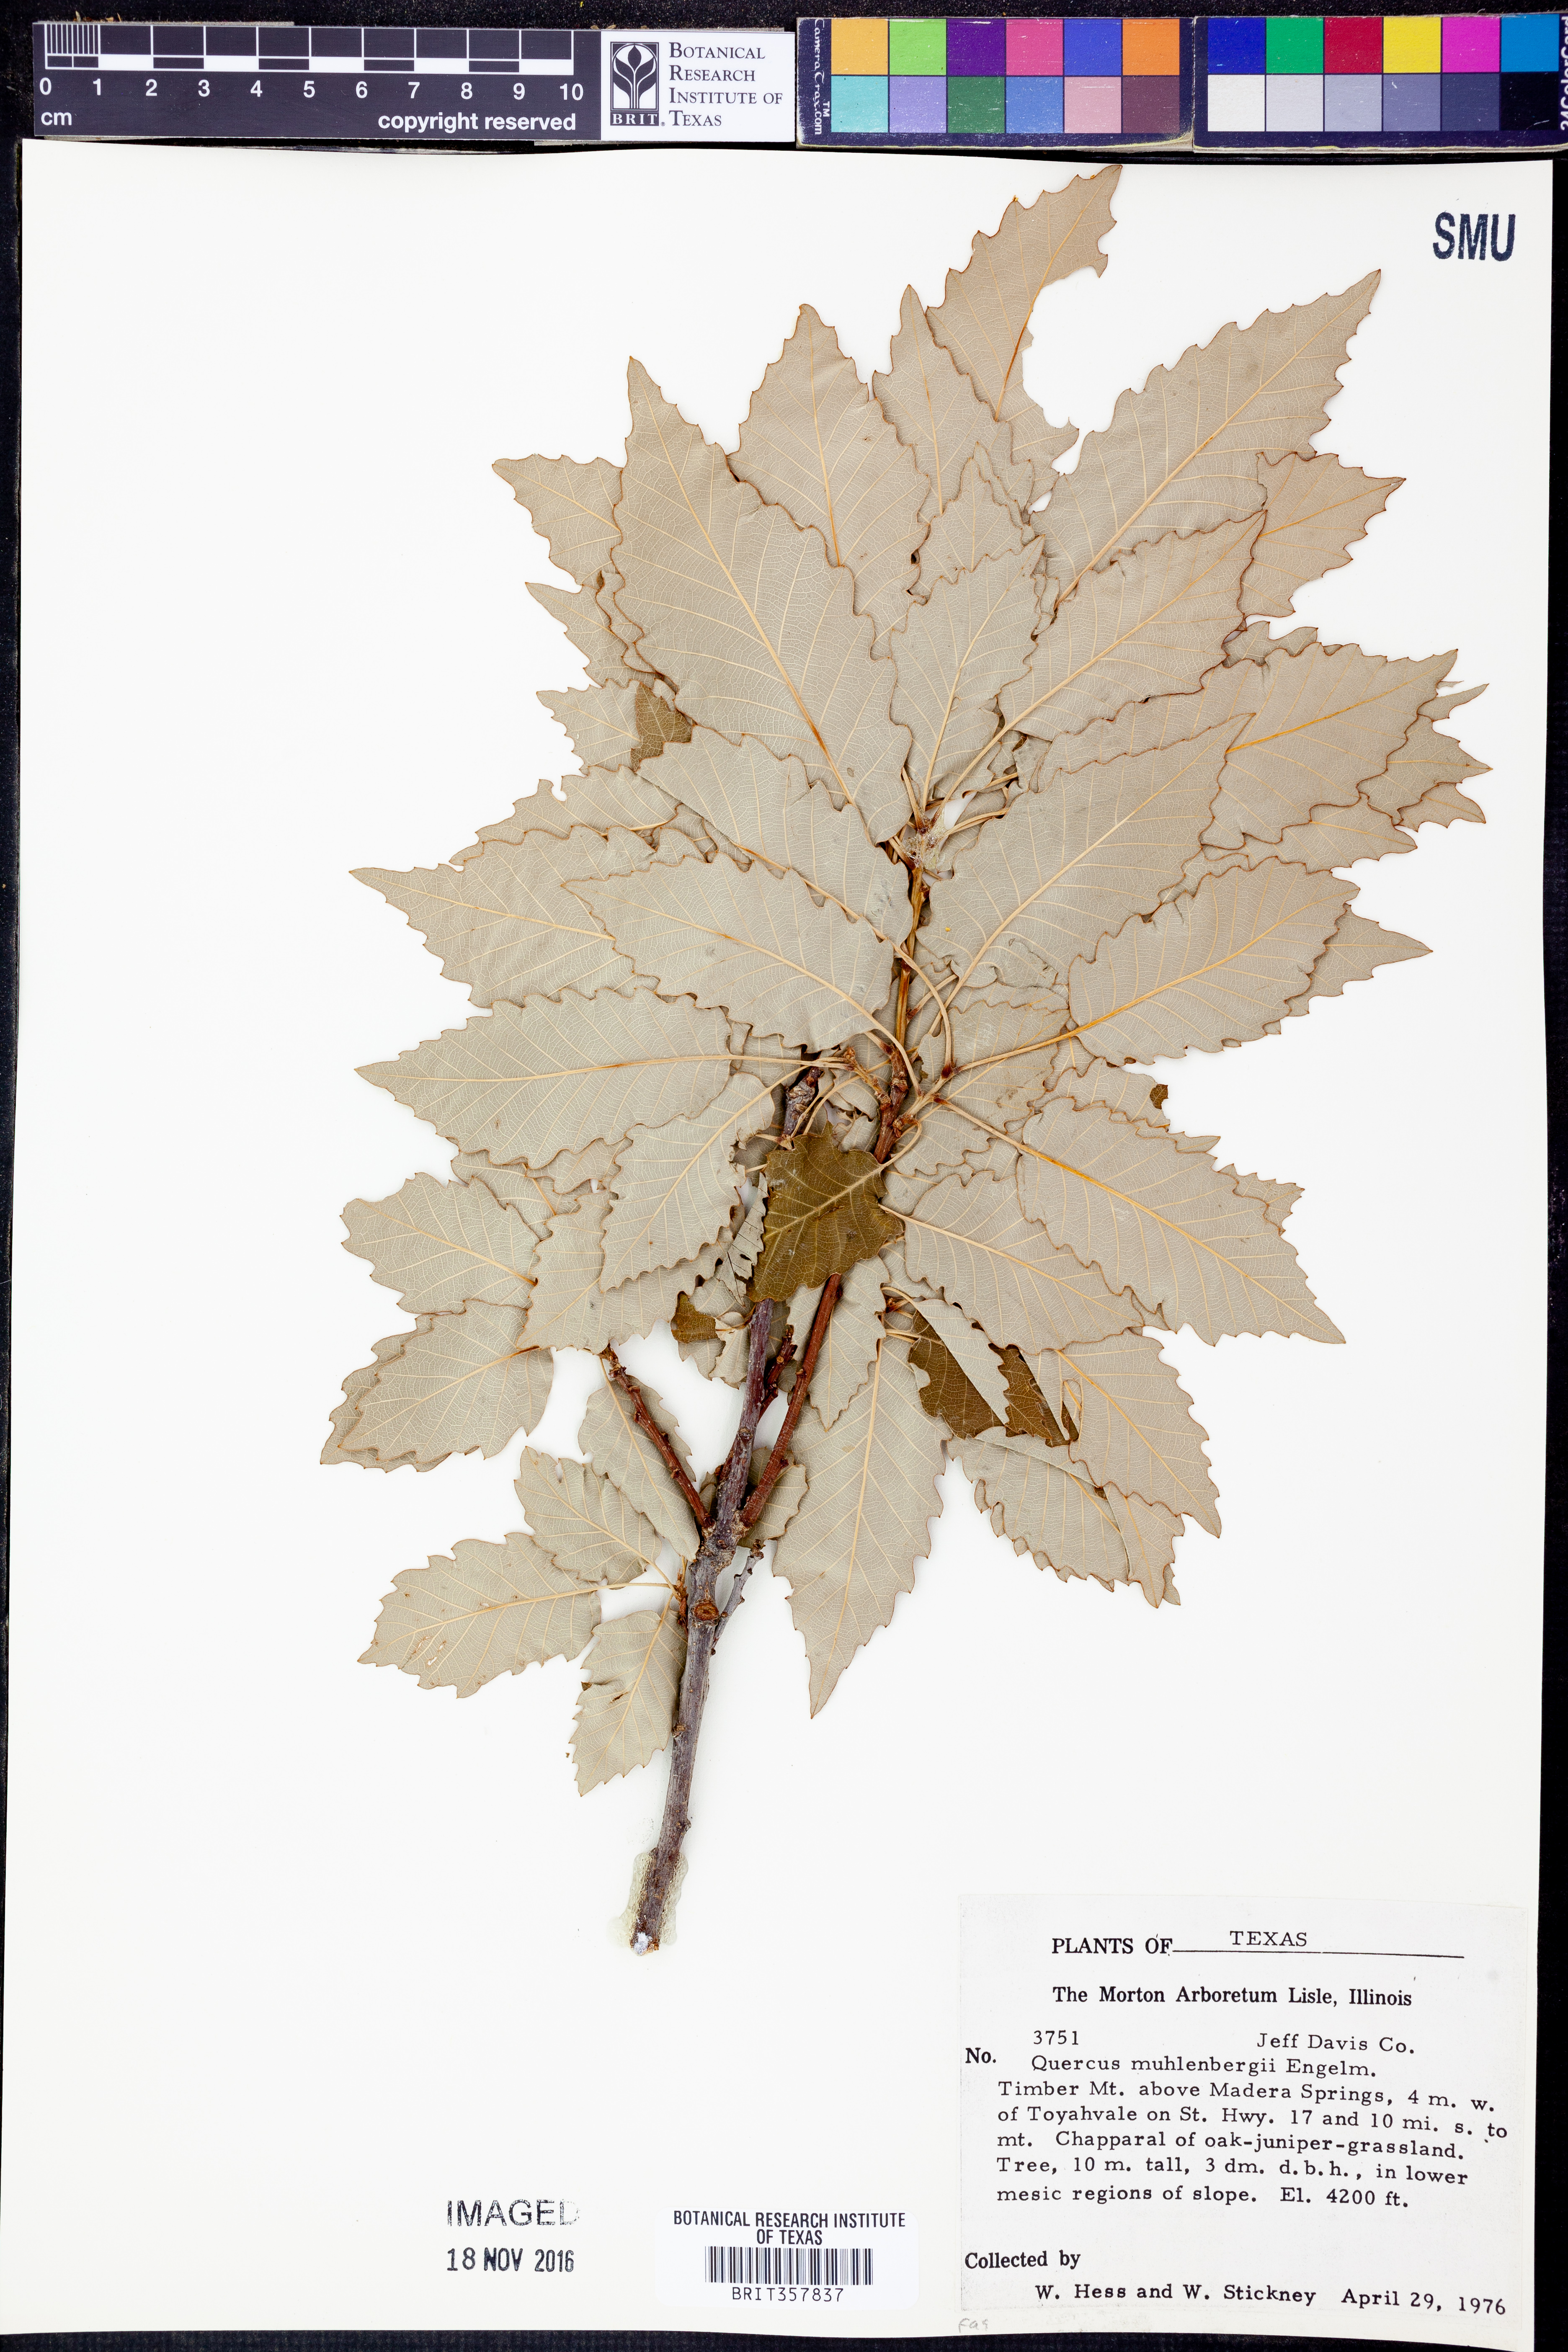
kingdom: Plantae
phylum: Tracheophyta
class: Magnoliopsida
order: Fagales
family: Fagaceae
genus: Quercus
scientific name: Quercus muehlenbergii
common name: Chinkapin oak
